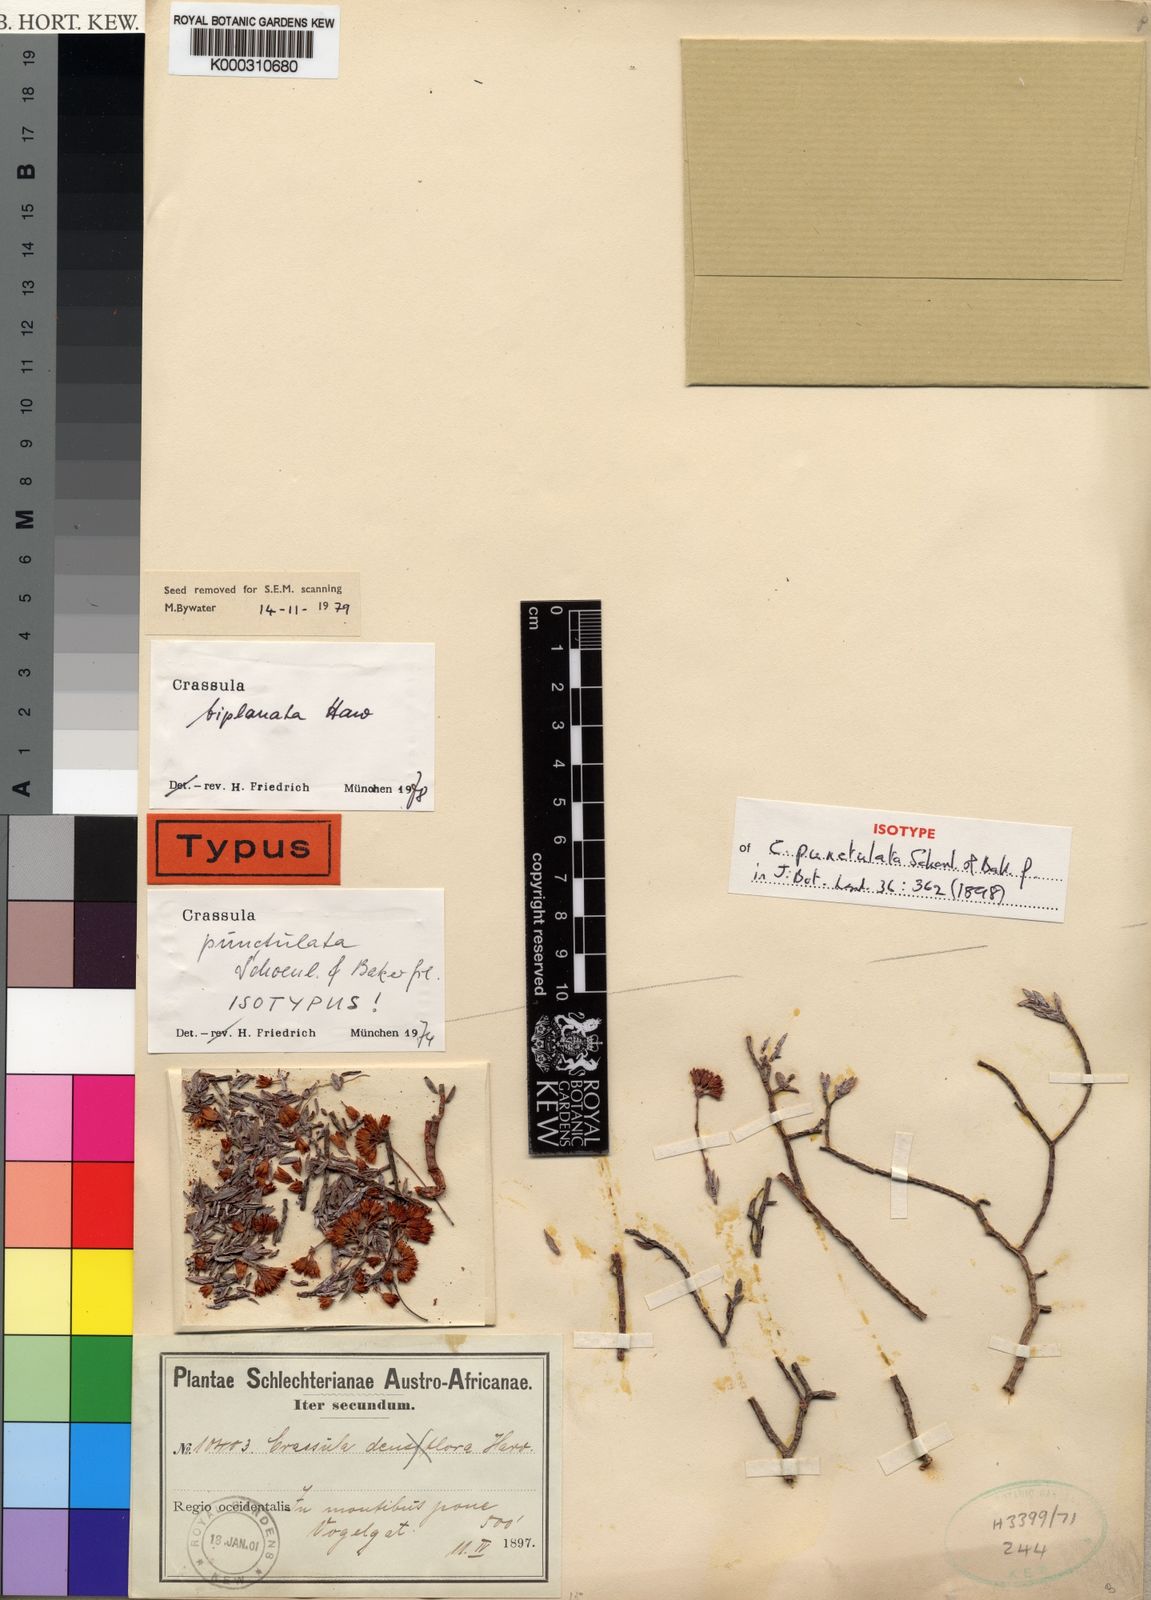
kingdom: Plantae
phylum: Tracheophyta
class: Magnoliopsida
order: Saxifragales
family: Crassulaceae
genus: Crassula
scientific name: Crassula biplanata
